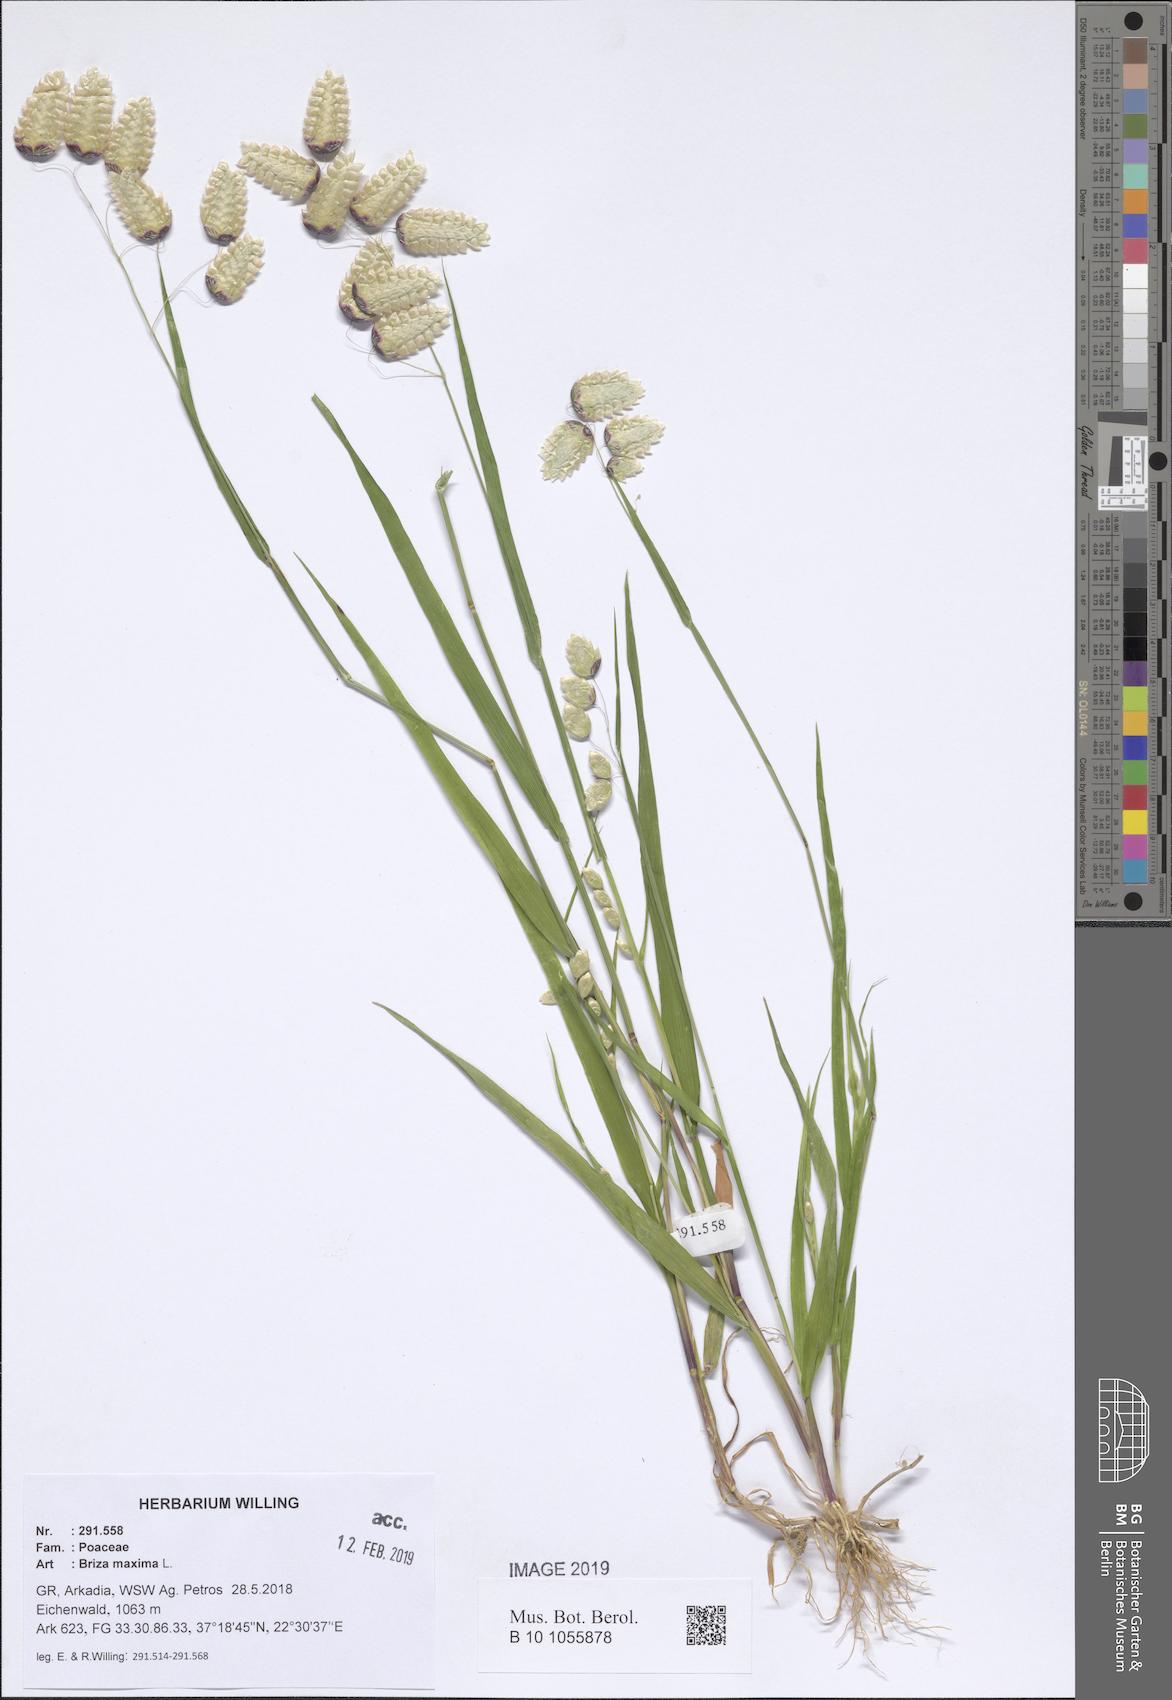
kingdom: Plantae
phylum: Tracheophyta
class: Liliopsida
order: Poales
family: Poaceae
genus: Briza
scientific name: Briza maxima
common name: Big quakinggrass
